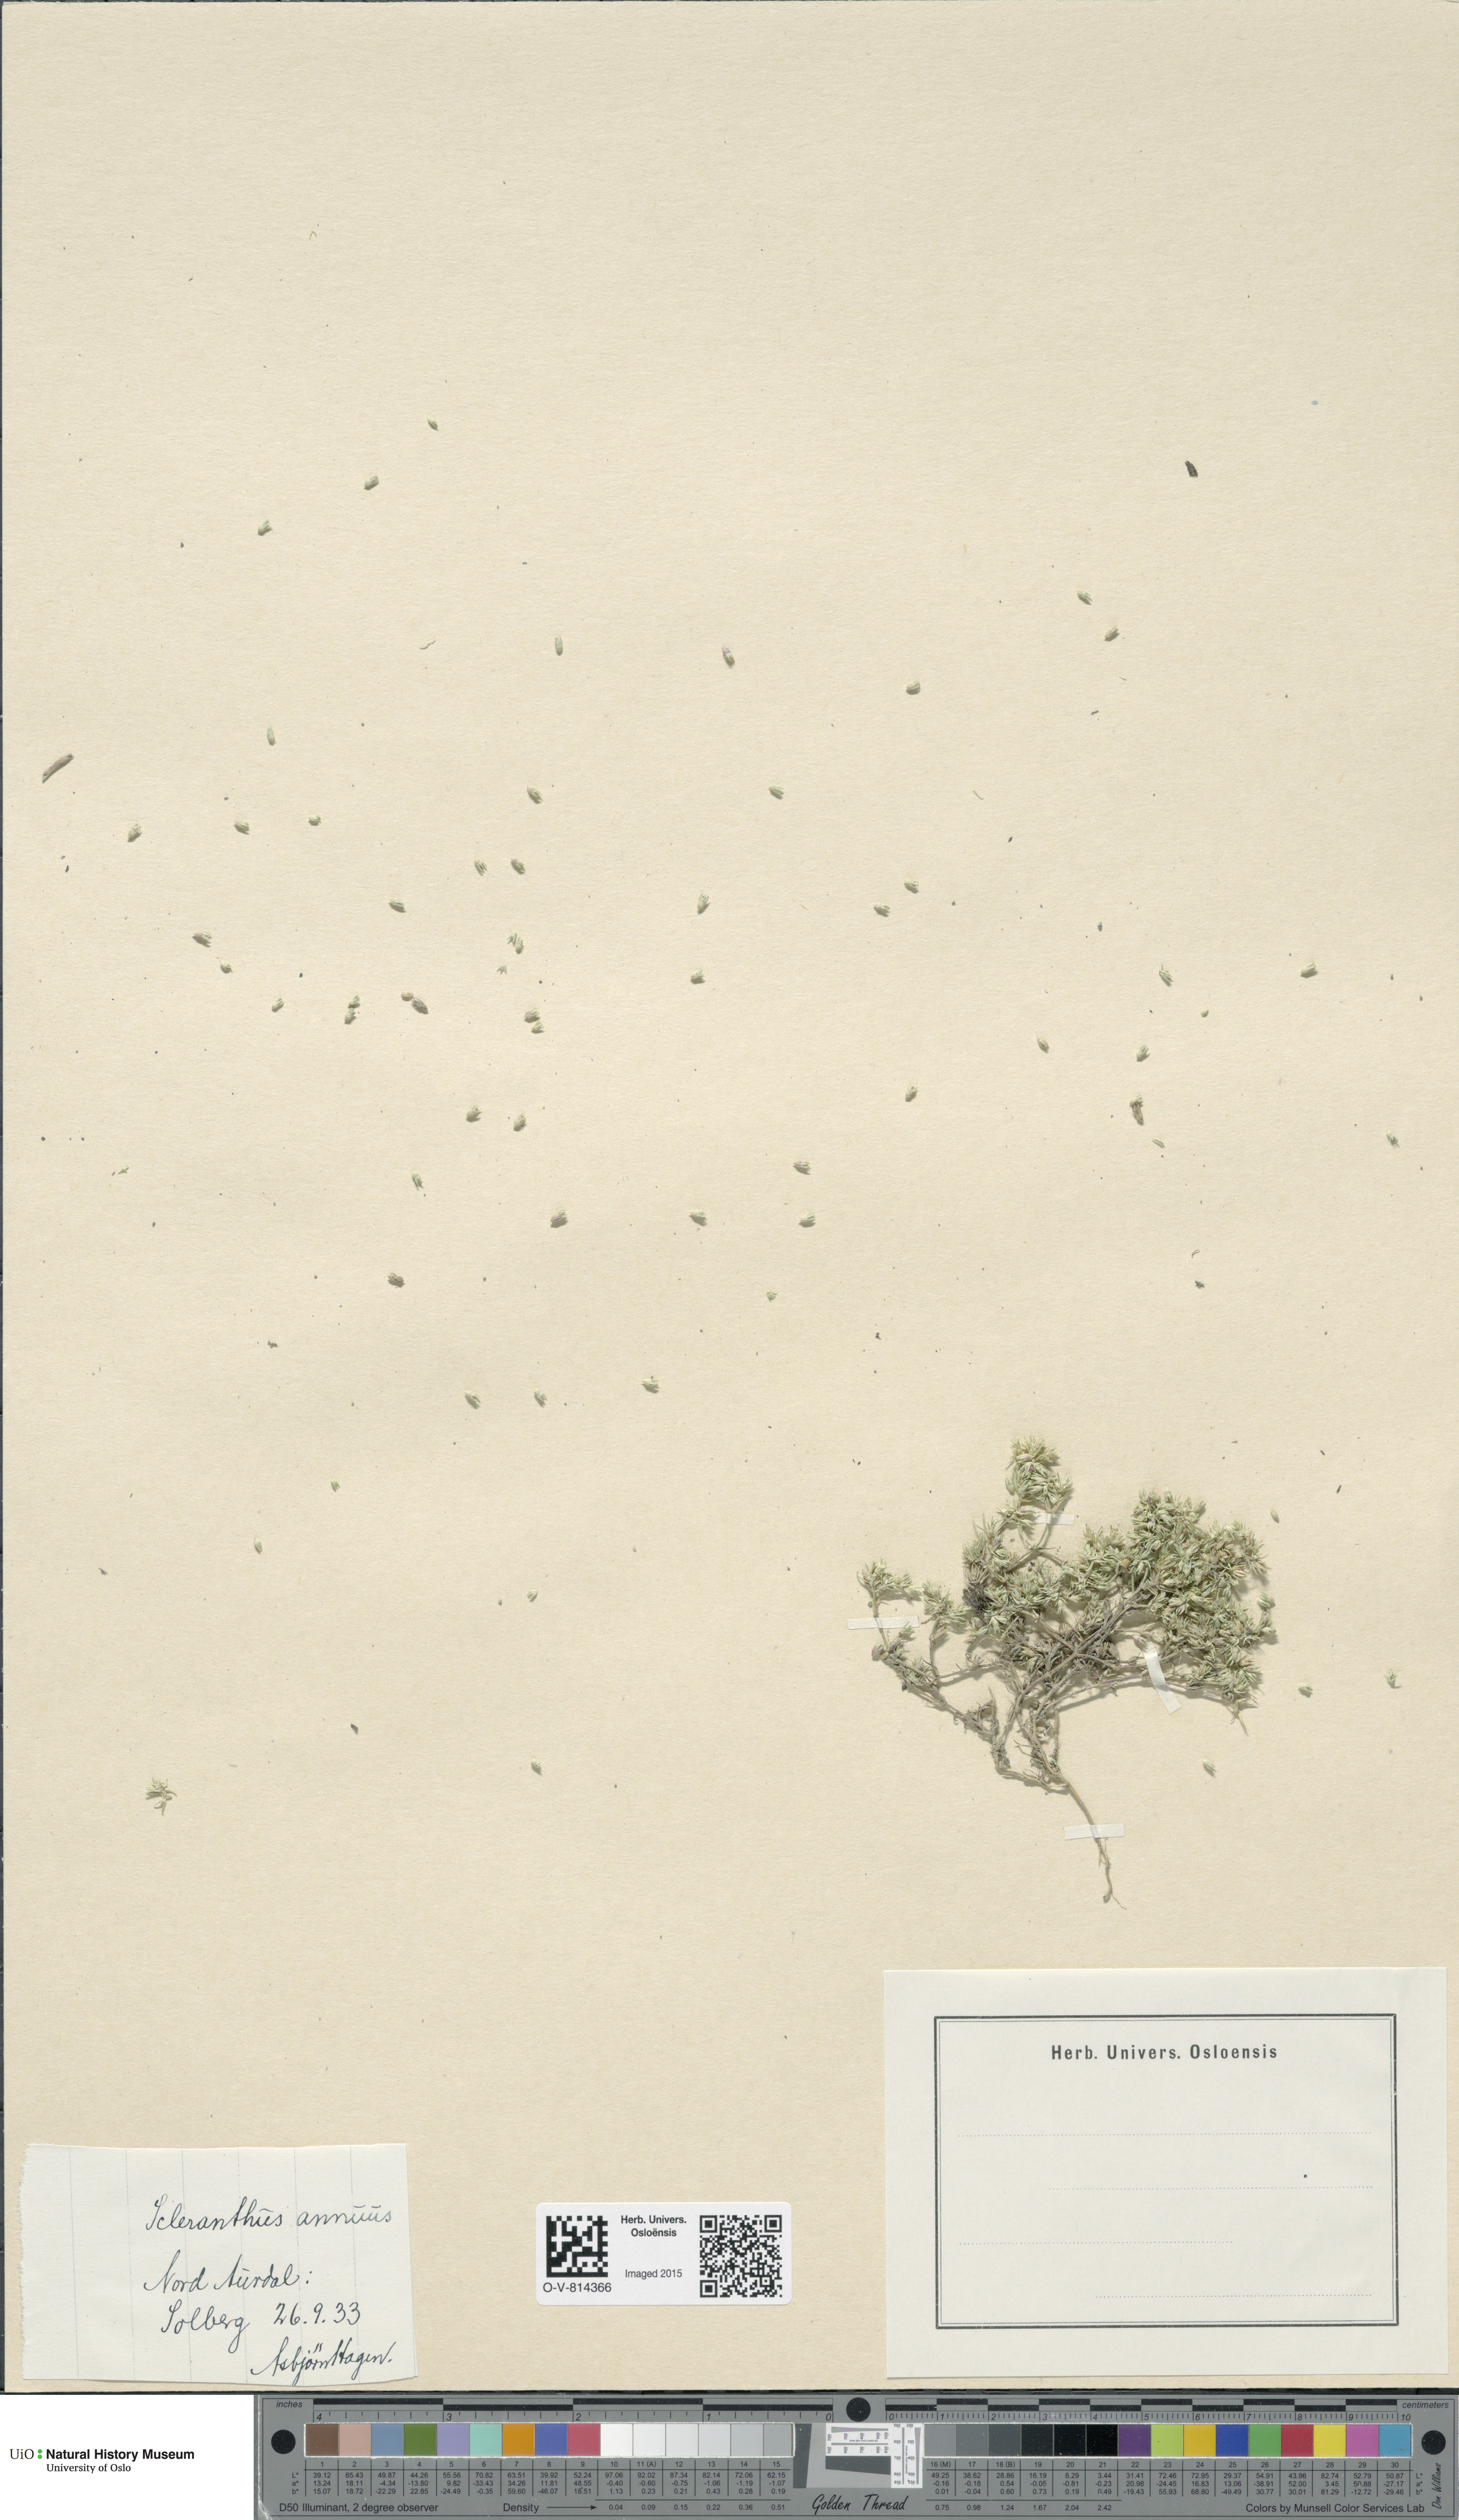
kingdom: Plantae
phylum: Tracheophyta
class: Magnoliopsida
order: Caryophyllales
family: Caryophyllaceae
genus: Scleranthus
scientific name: Scleranthus annuus
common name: Annual knawel
